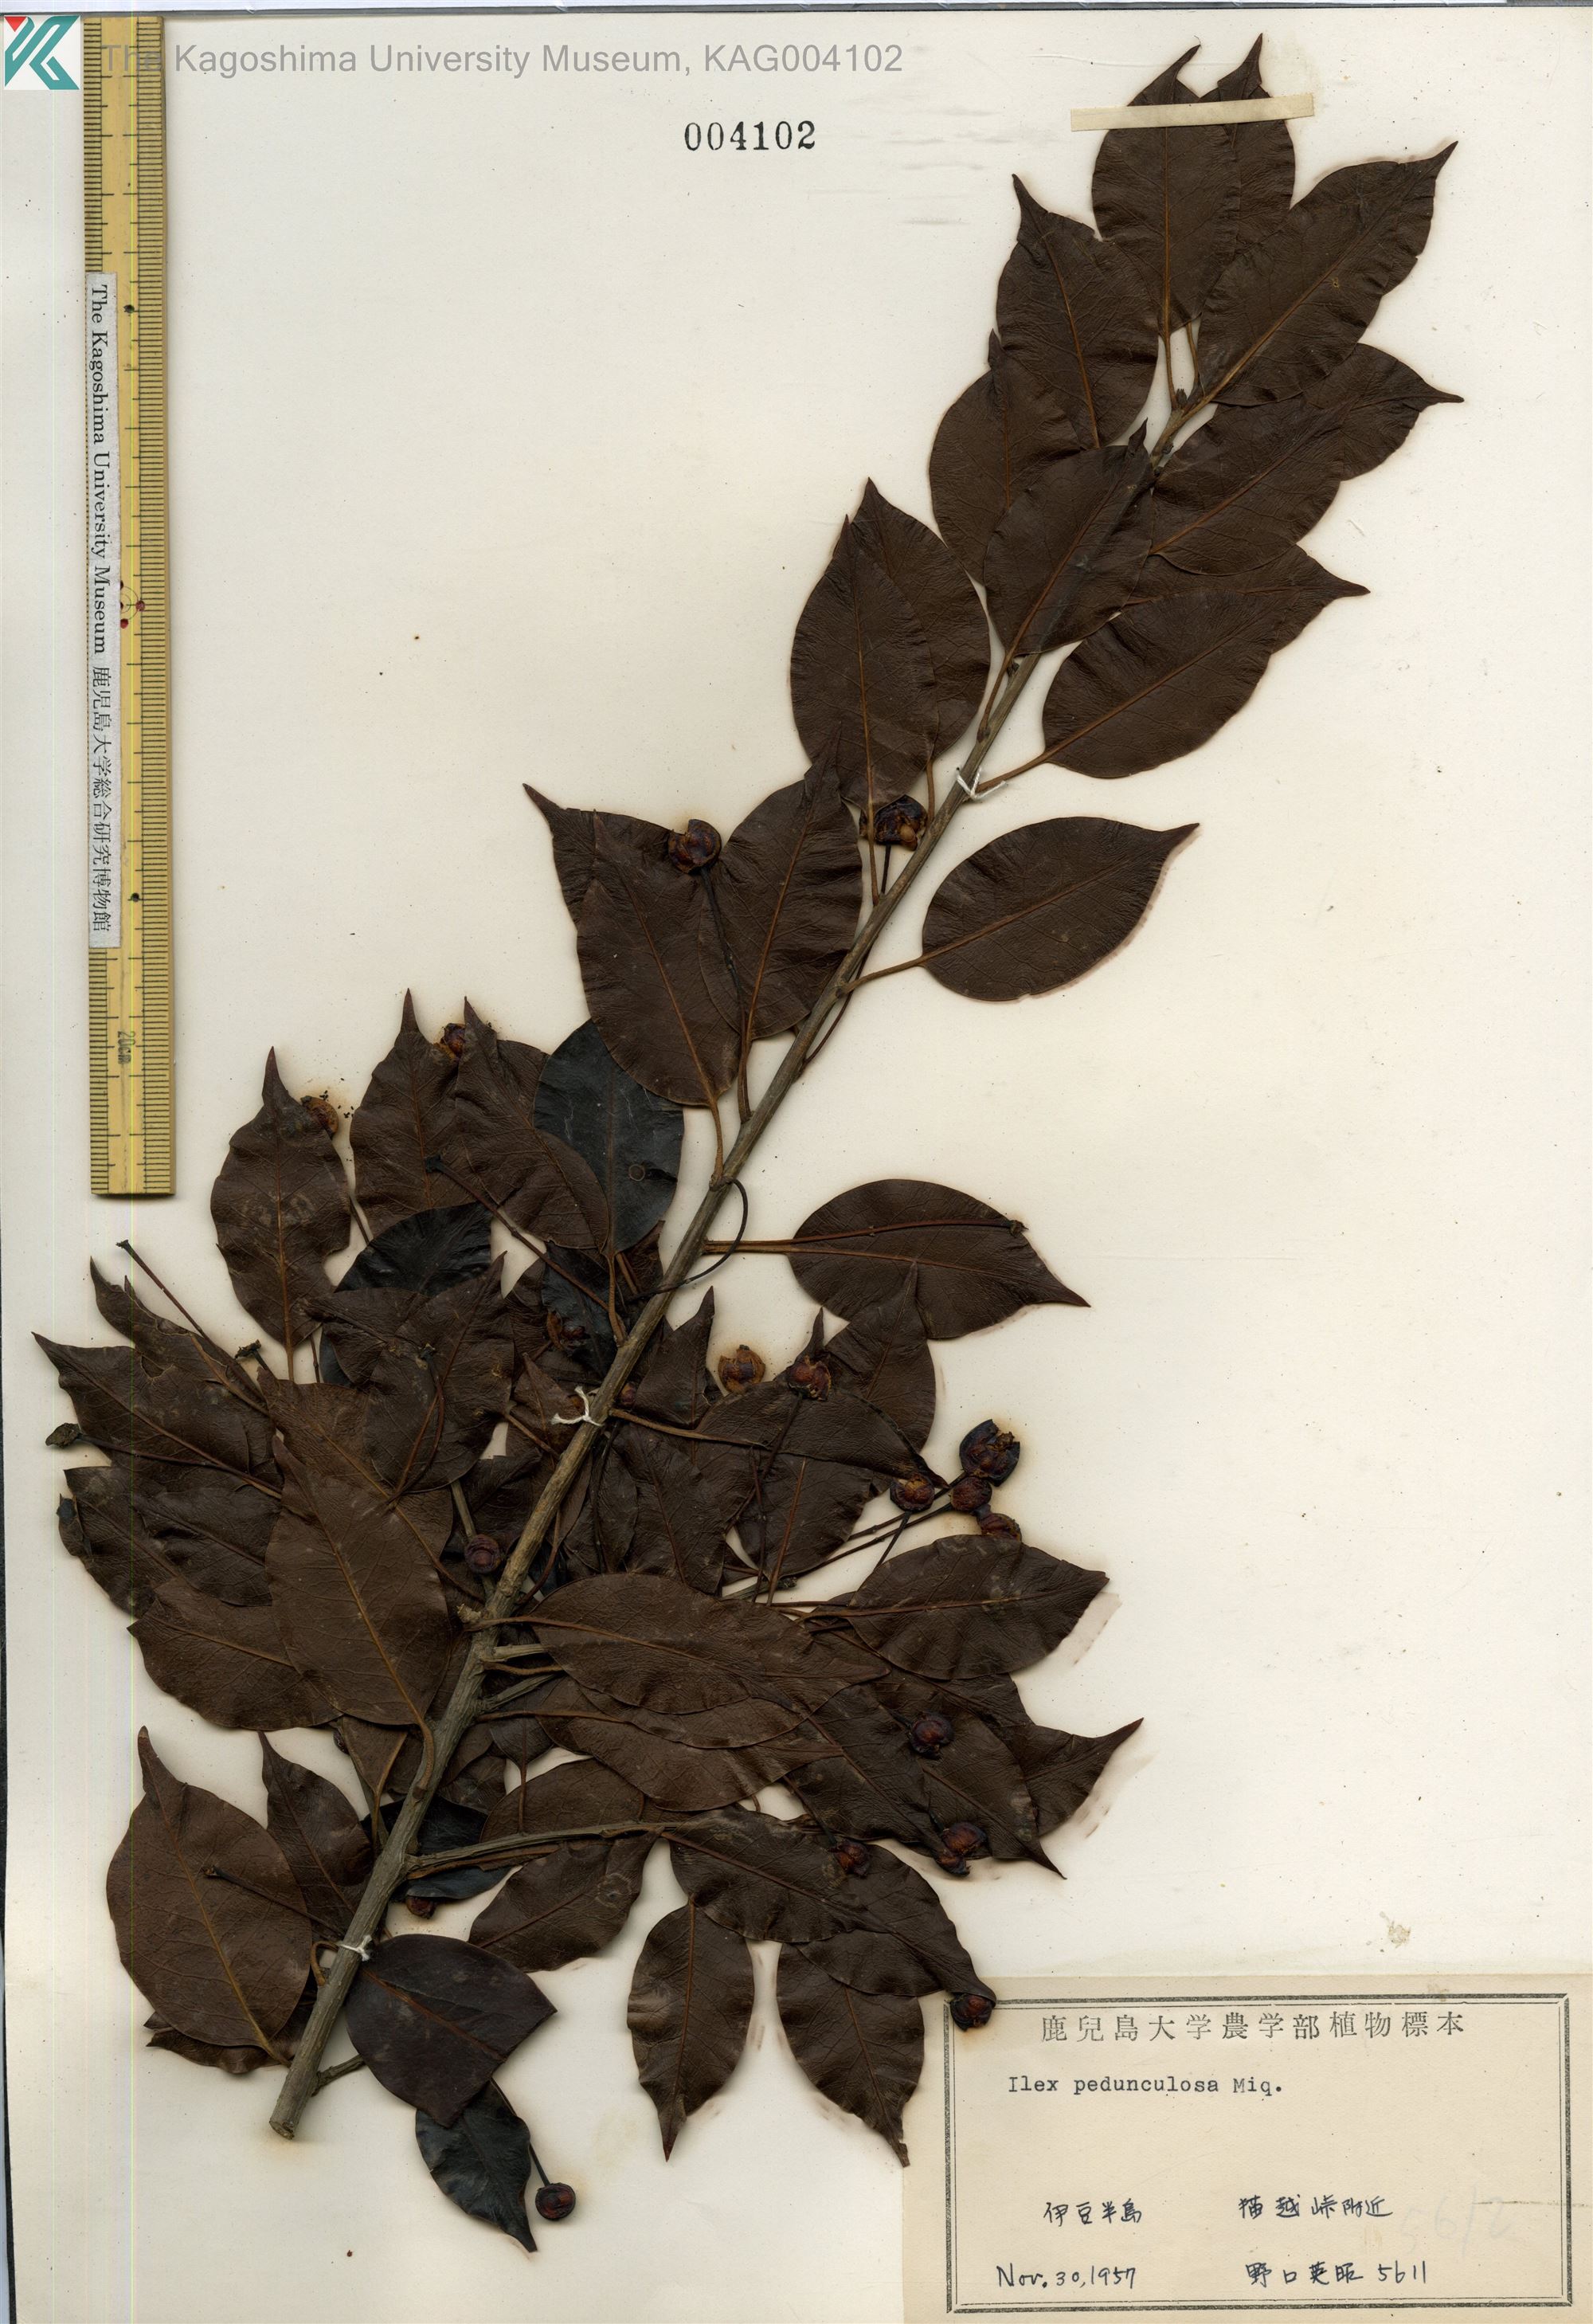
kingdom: Plantae
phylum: Tracheophyta
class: Magnoliopsida
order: Aquifoliales
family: Aquifoliaceae
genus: Ilex
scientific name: Ilex pedunculosa
